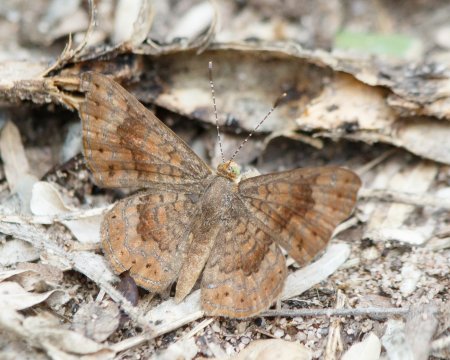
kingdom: Animalia
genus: Calephelis
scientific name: Calephelis nemesis
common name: Fatal Metalmark
